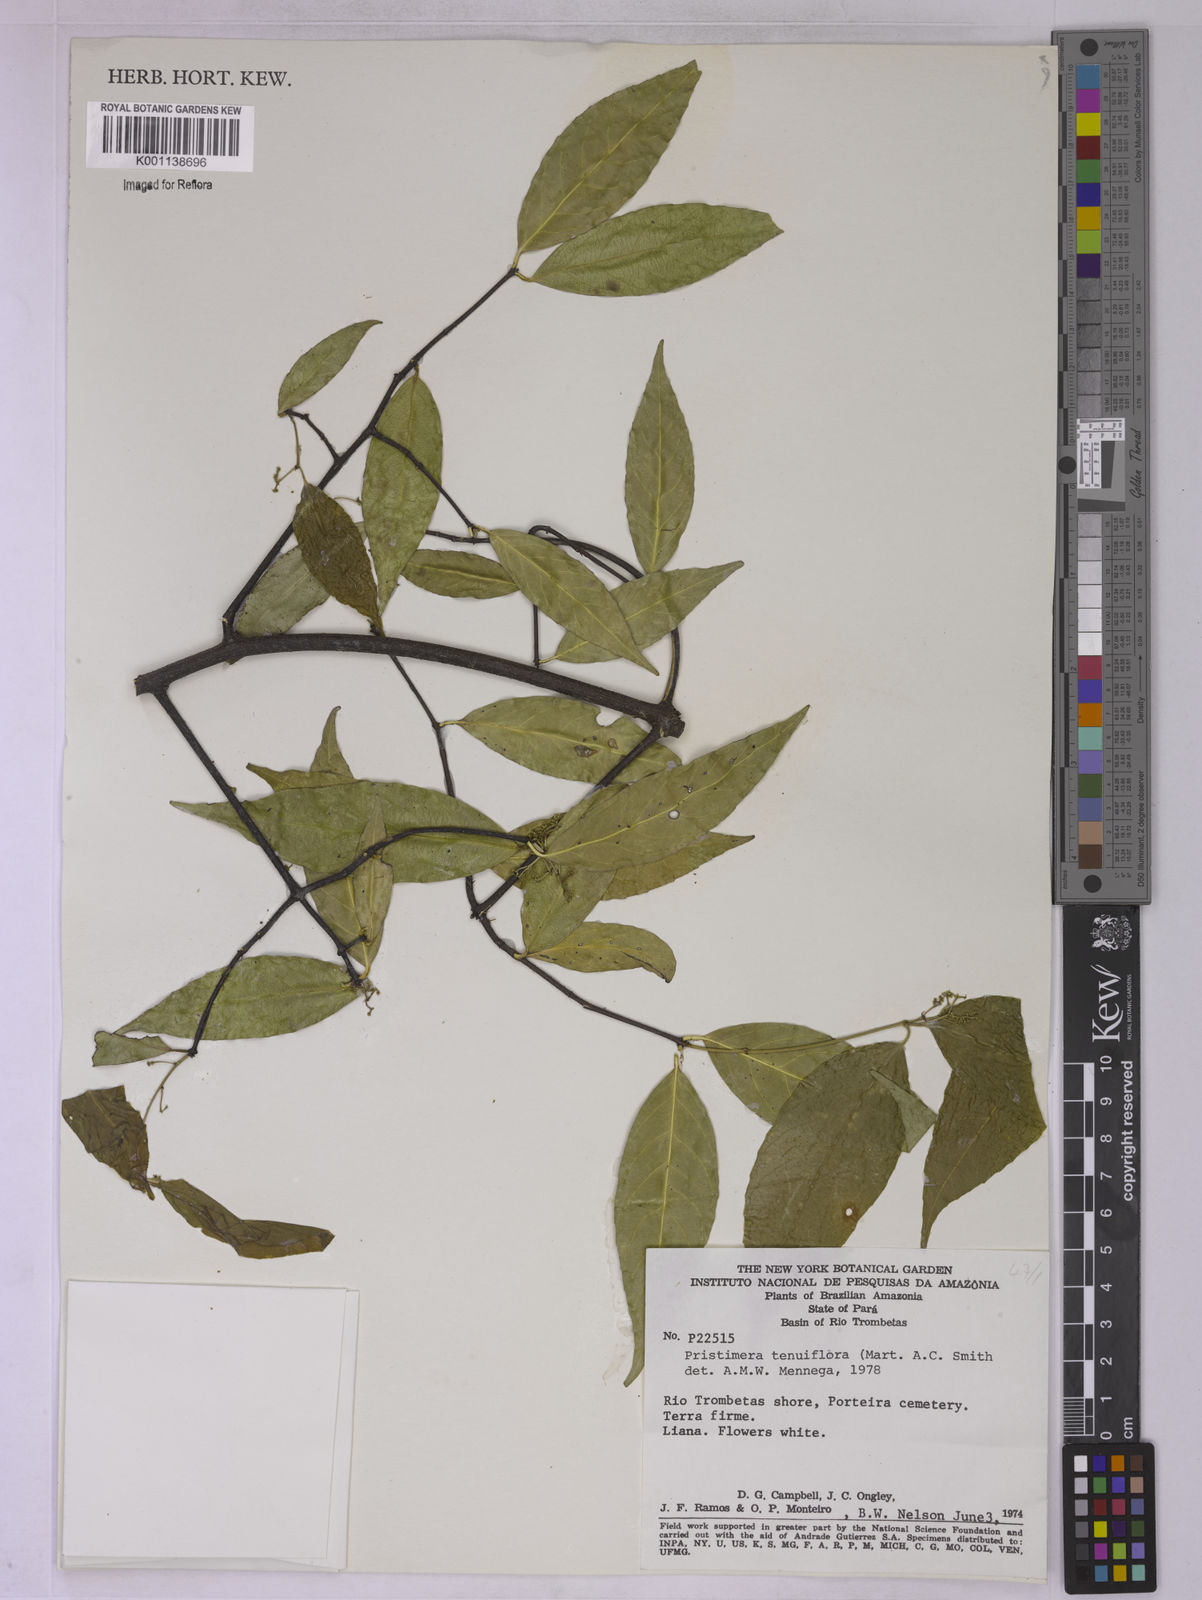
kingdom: Plantae
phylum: Tracheophyta
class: Magnoliopsida
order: Celastrales
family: Celastraceae
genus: Pristimera
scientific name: Pristimera tenuiflora
